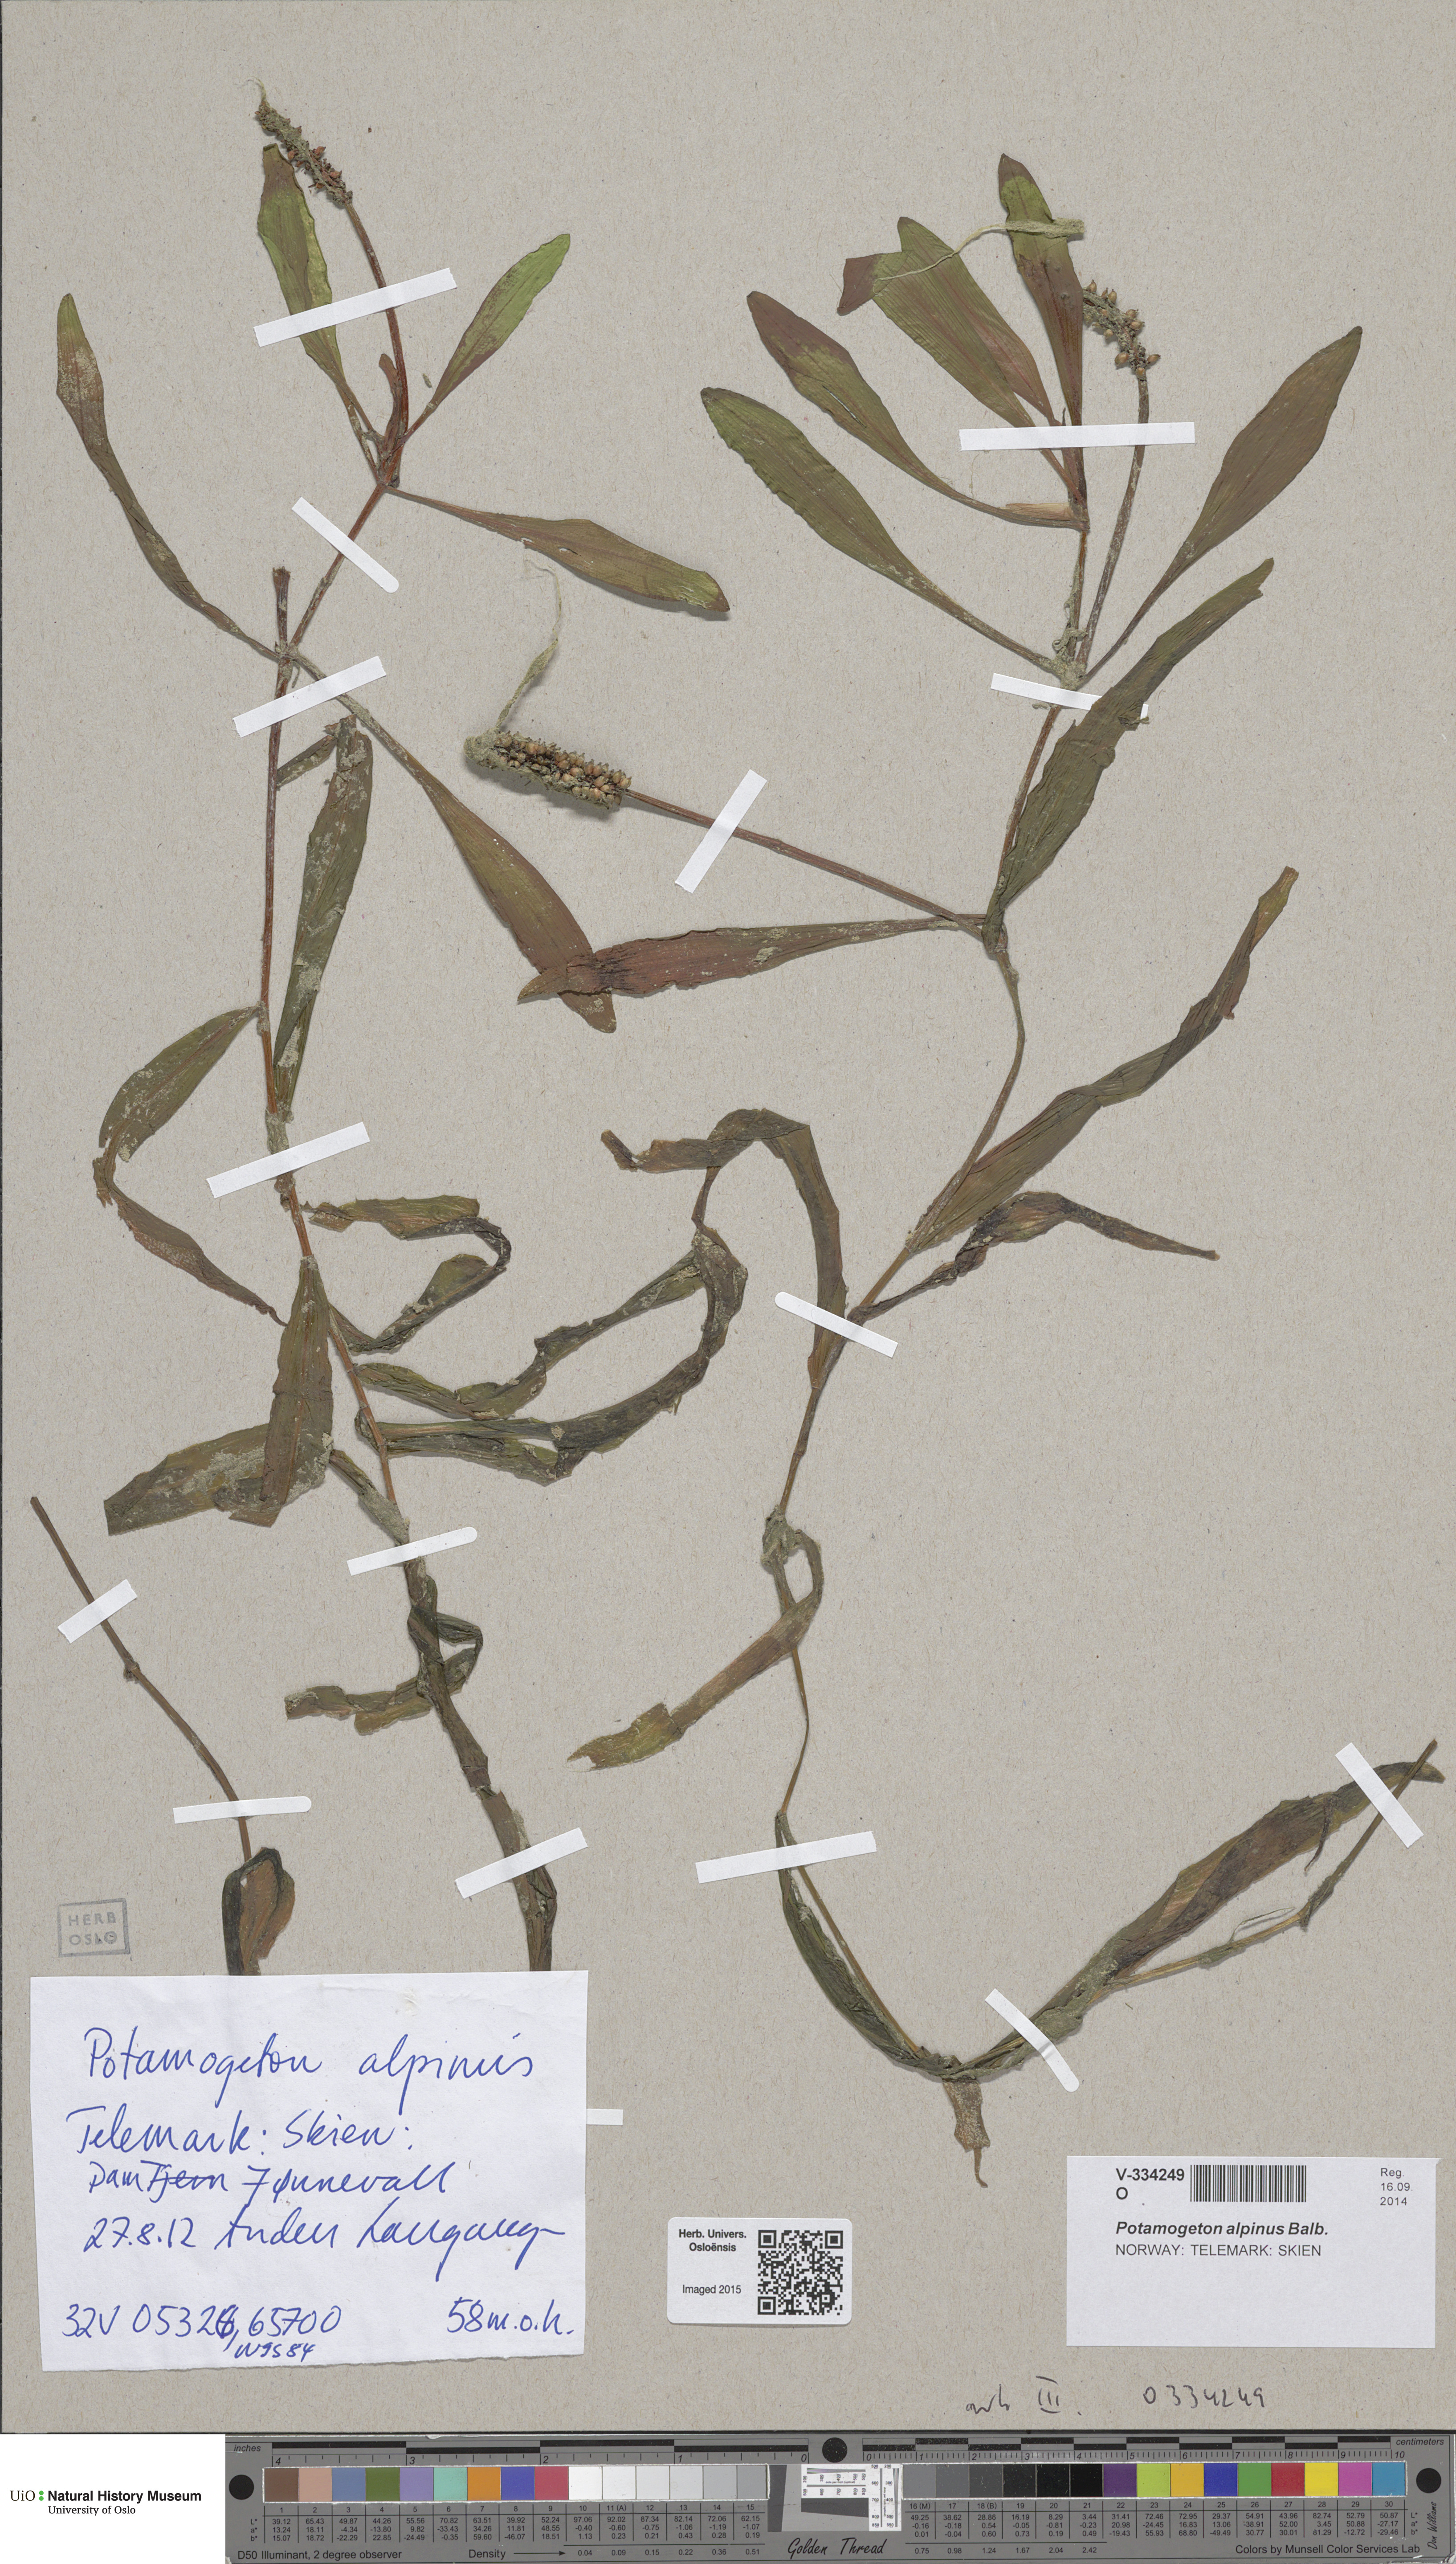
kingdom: Plantae
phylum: Tracheophyta
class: Liliopsida
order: Alismatales
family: Potamogetonaceae
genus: Potamogeton
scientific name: Potamogeton alpinus
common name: Red pondweed
